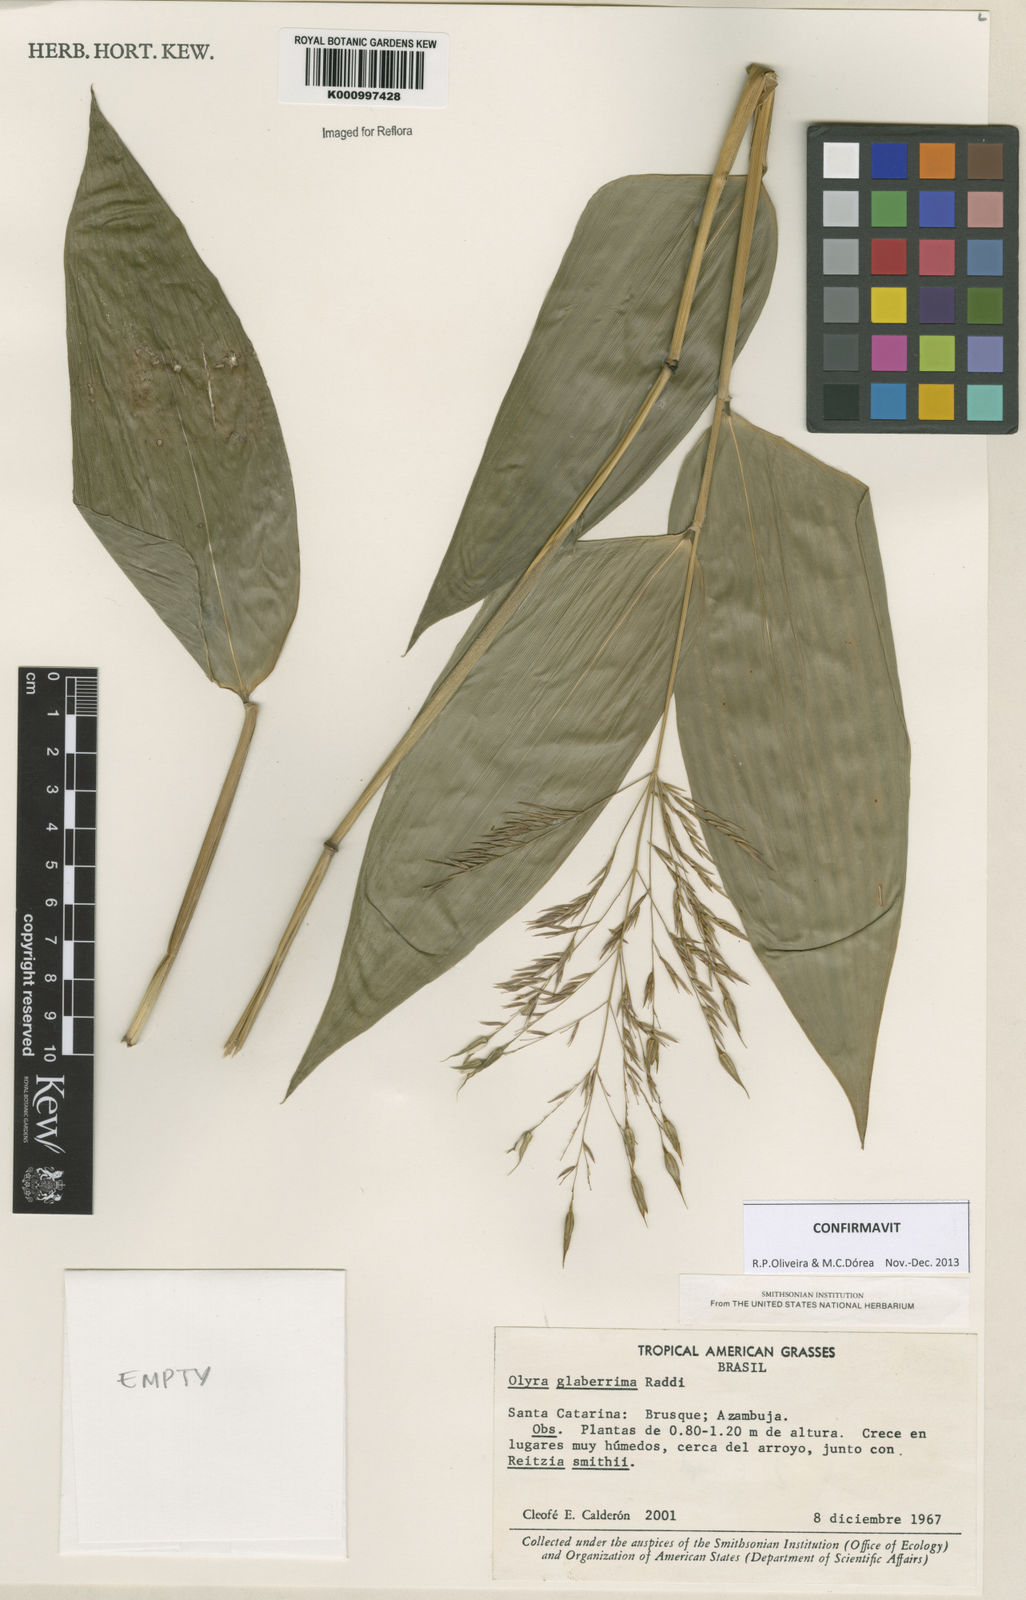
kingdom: Plantae
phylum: Tracheophyta
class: Liliopsida
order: Poales
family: Poaceae
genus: Olyra
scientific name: Olyra glaberrima
